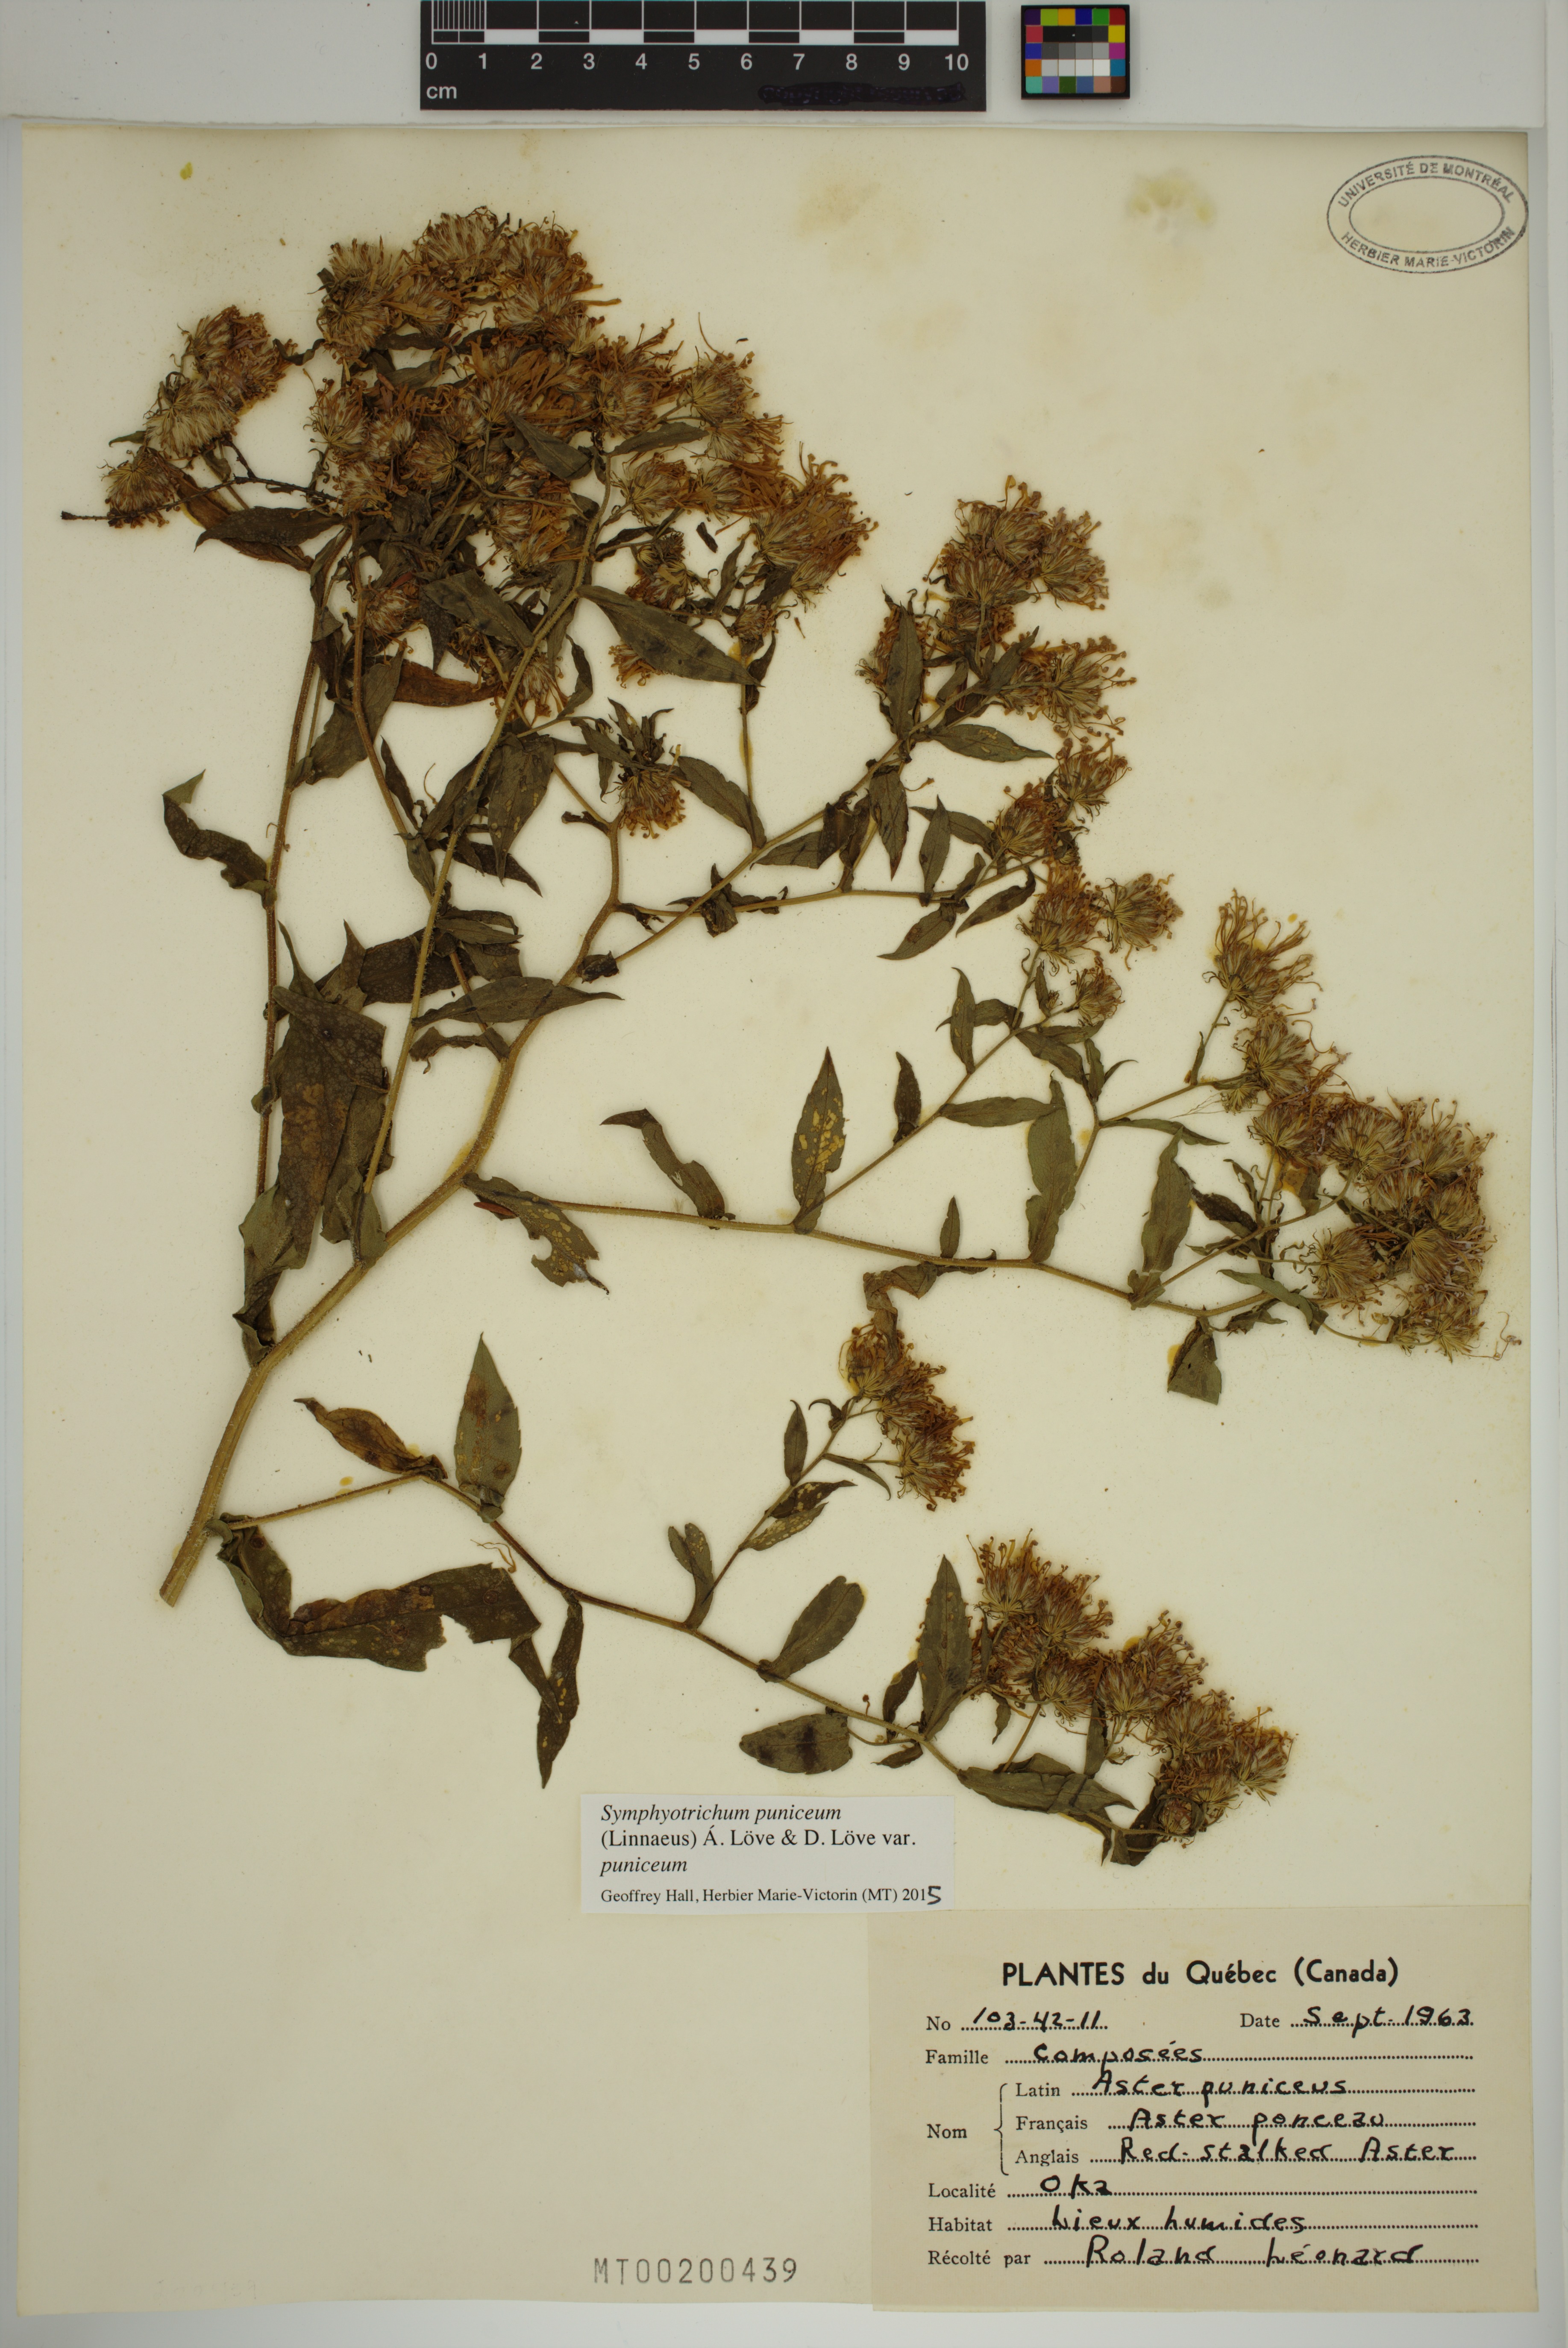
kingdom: Plantae
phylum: Tracheophyta
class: Magnoliopsida
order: Asterales
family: Asteraceae
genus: Symphyotrichum
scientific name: Symphyotrichum puniceum
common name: Bog aster
